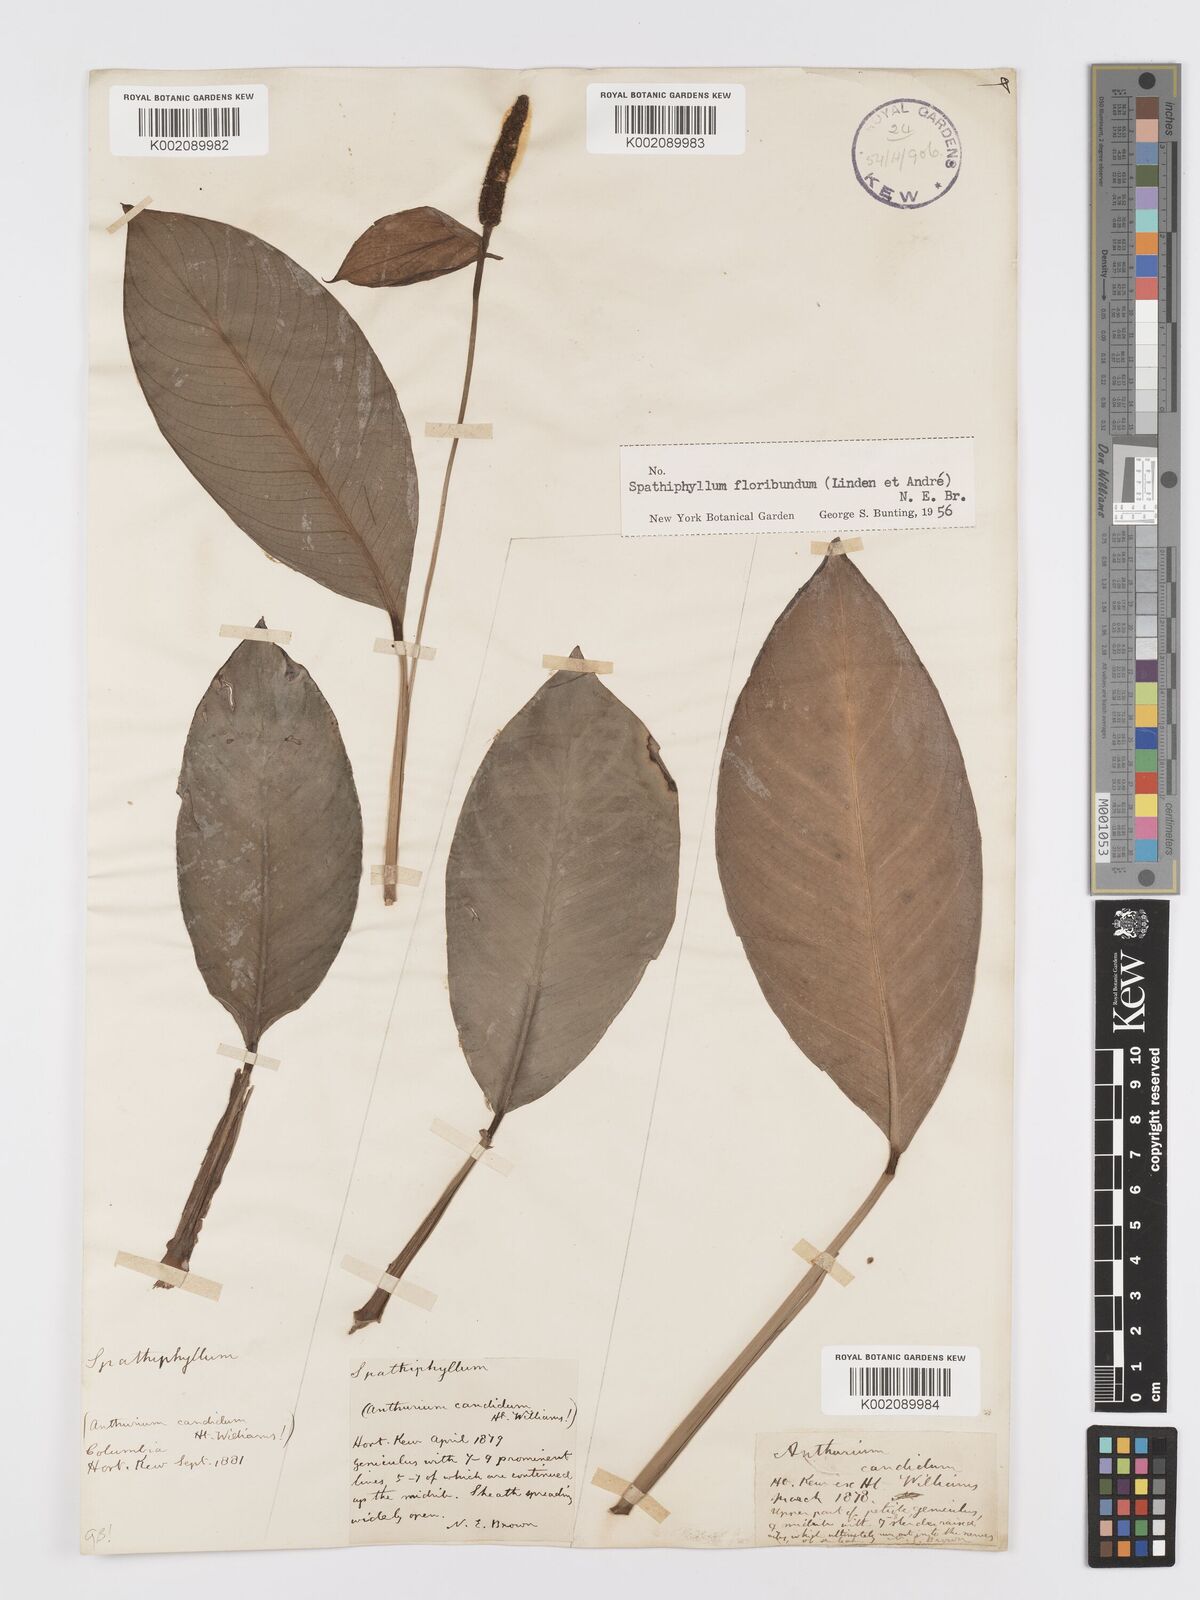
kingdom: Plantae
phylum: Tracheophyta
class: Liliopsida
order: Alismatales
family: Araceae
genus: Spathiphyllum
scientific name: Spathiphyllum floribundum
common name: Peace-lily
